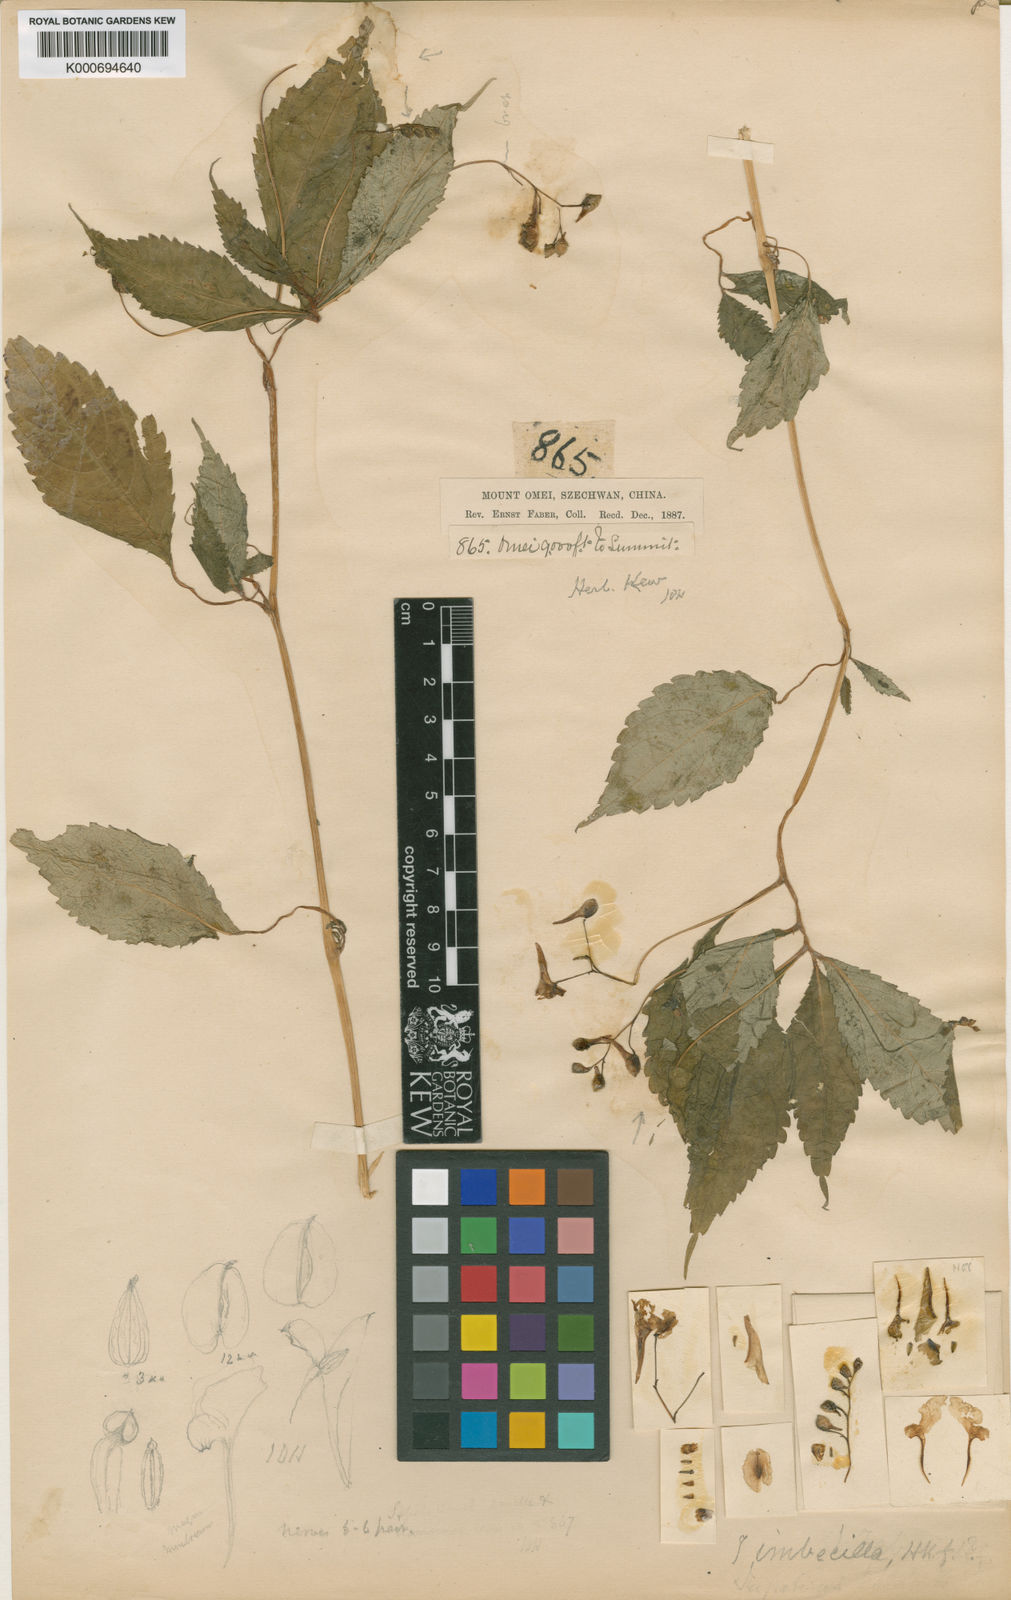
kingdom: Plantae
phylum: Tracheophyta
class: Magnoliopsida
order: Ericales
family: Balsaminaceae
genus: Impatiens
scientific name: Impatiens imbecilla
